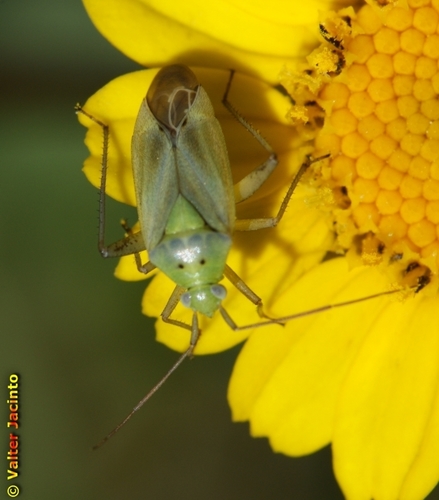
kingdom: Animalia
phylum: Arthropoda
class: Insecta
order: Hemiptera
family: Miridae
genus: Closterotomus
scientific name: Closterotomus norvegicus
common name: Plant bug
